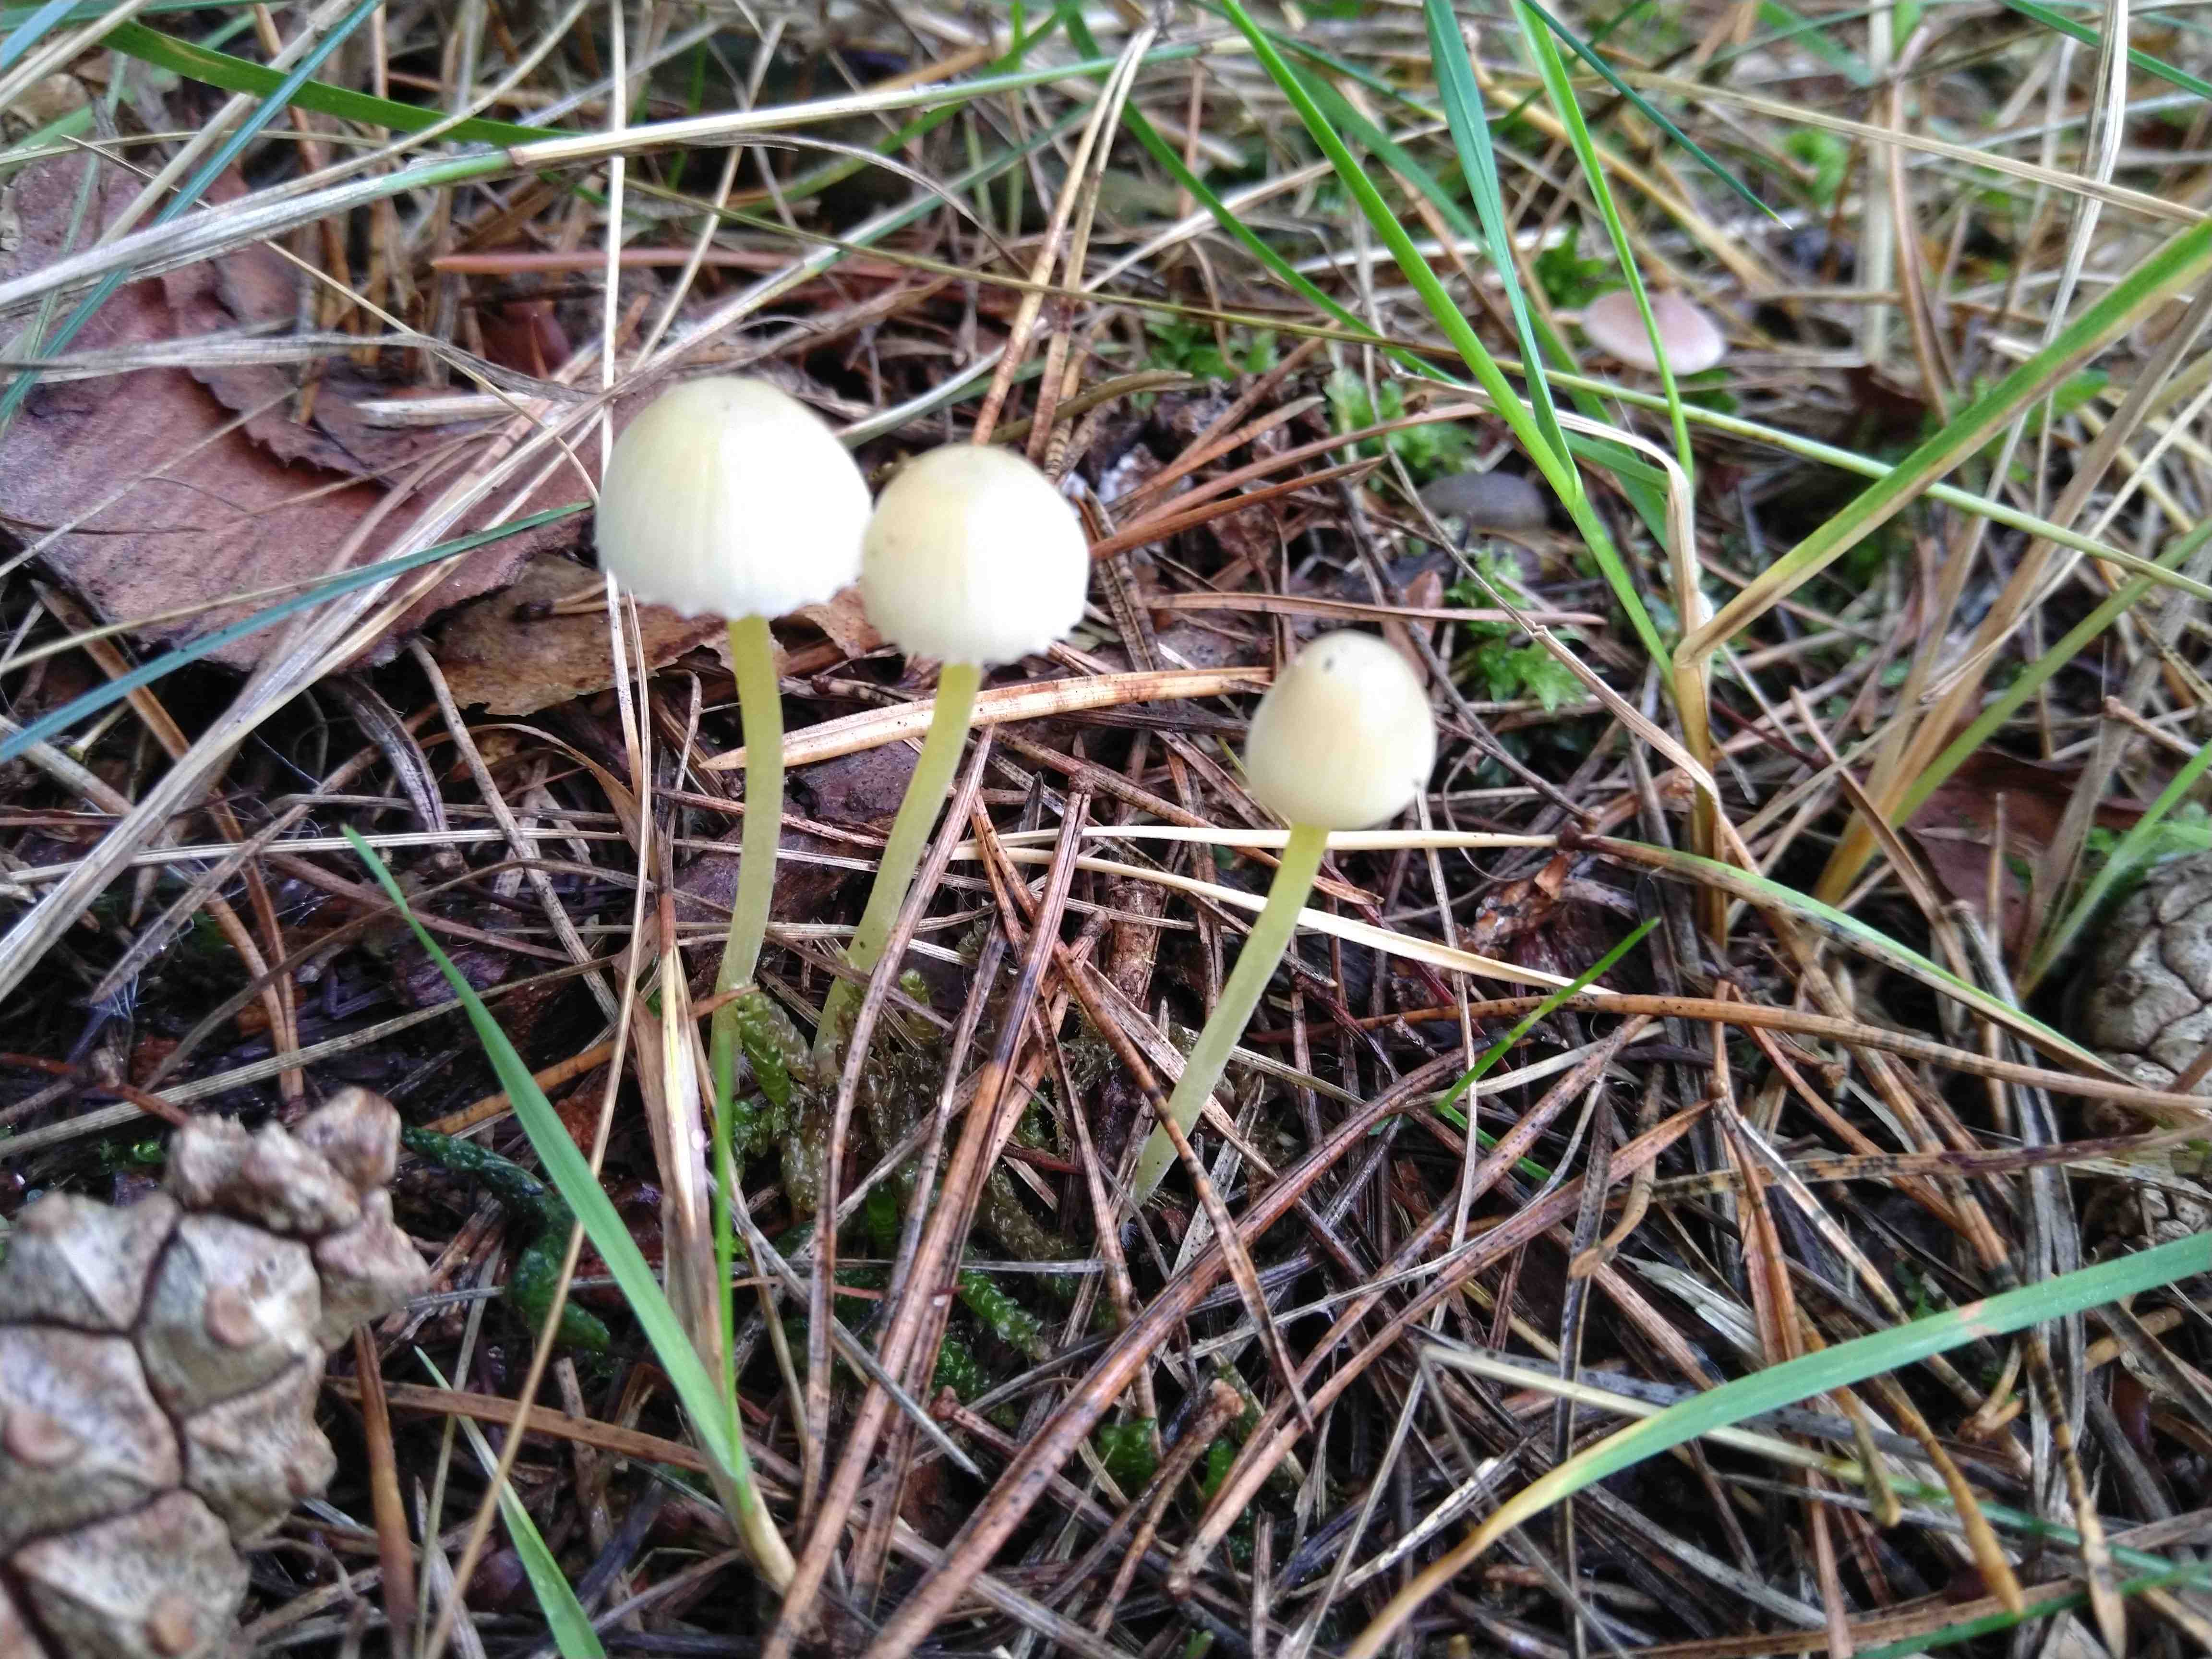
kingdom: Fungi
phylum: Basidiomycota
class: Agaricomycetes
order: Agaricales
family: Mycenaceae
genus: Mycena
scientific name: Mycena epipterygia
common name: gulstokket huesvamp
